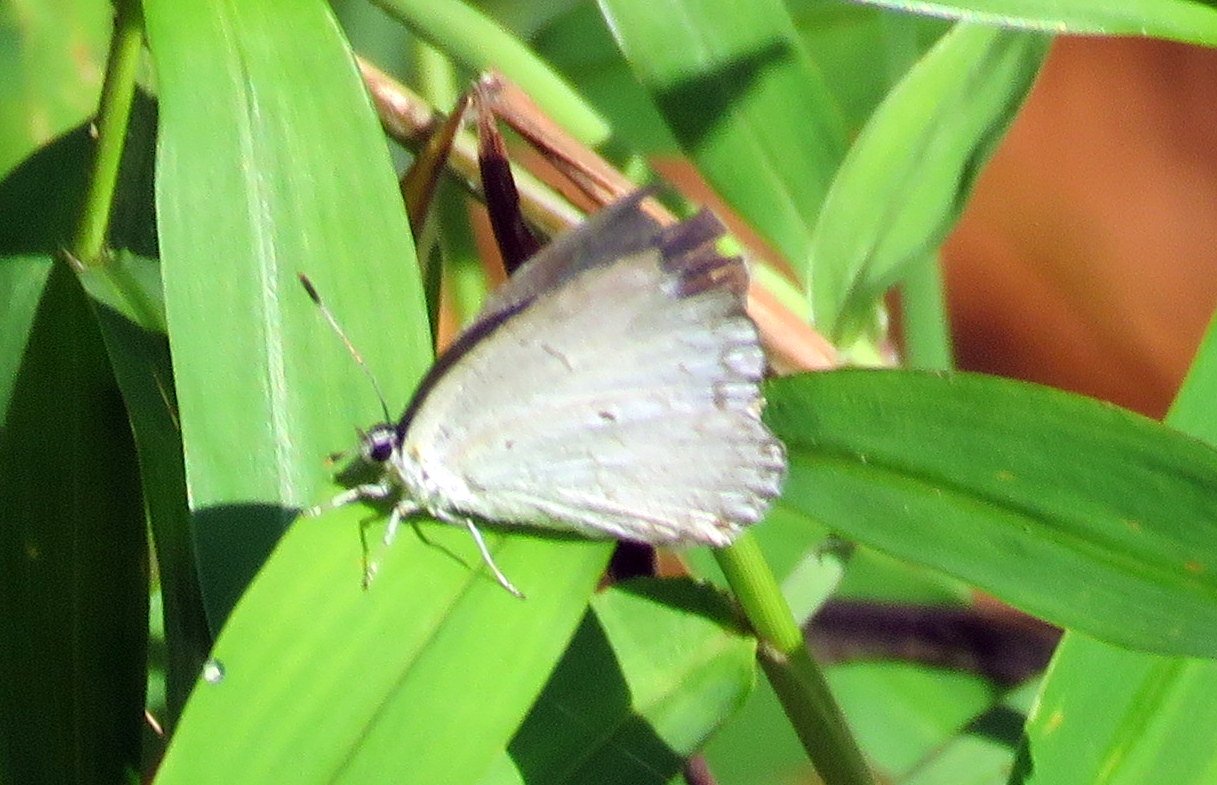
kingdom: Animalia
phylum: Arthropoda
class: Insecta
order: Lepidoptera
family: Lycaenidae
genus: Cyaniris
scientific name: Cyaniris neglecta
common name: Summer Azure
